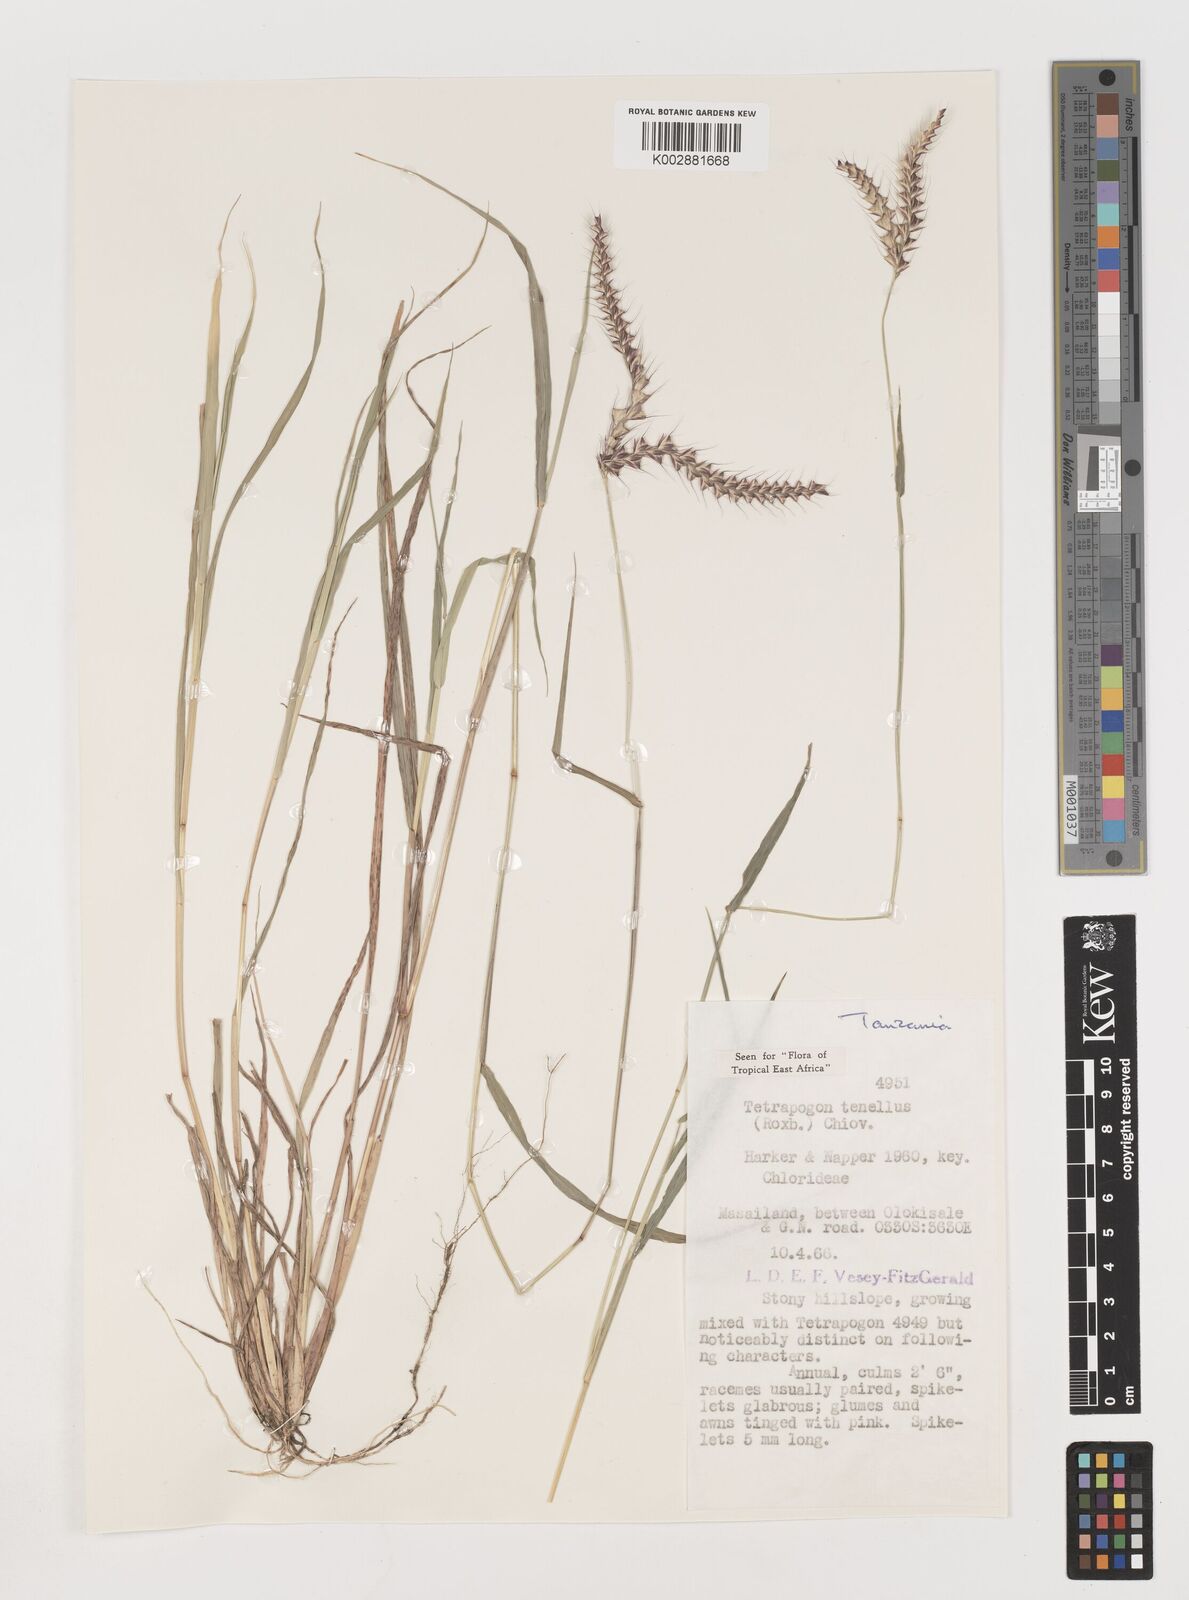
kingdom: Plantae
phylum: Tracheophyta
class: Liliopsida
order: Poales
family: Poaceae
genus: Tetrapogon
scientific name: Tetrapogon tenellus
